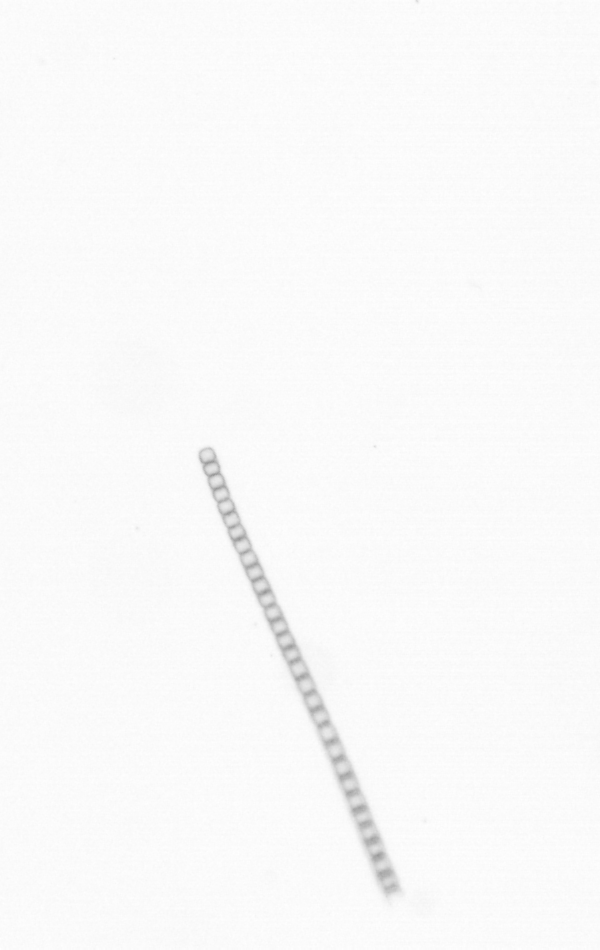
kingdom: Chromista
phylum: Ochrophyta
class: Bacillariophyceae
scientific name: Bacillariophyceae
